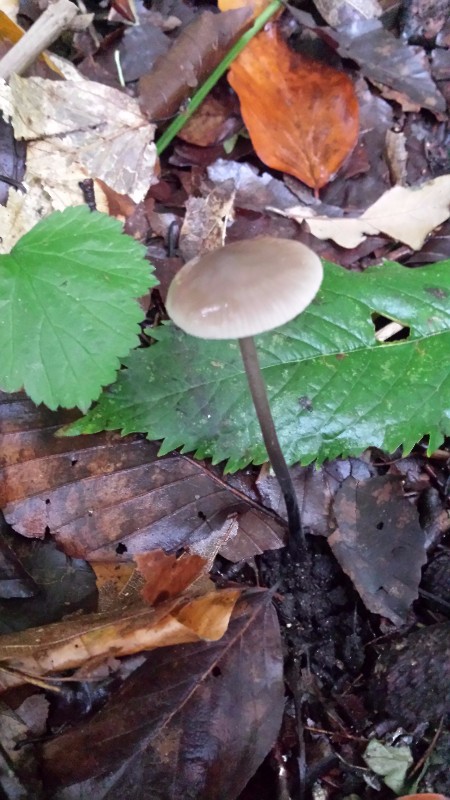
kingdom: Fungi
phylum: Basidiomycota
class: Agaricomycetes
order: Agaricales
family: Omphalotaceae
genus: Mycetinis
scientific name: Mycetinis alliaceus
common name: stor løghat
